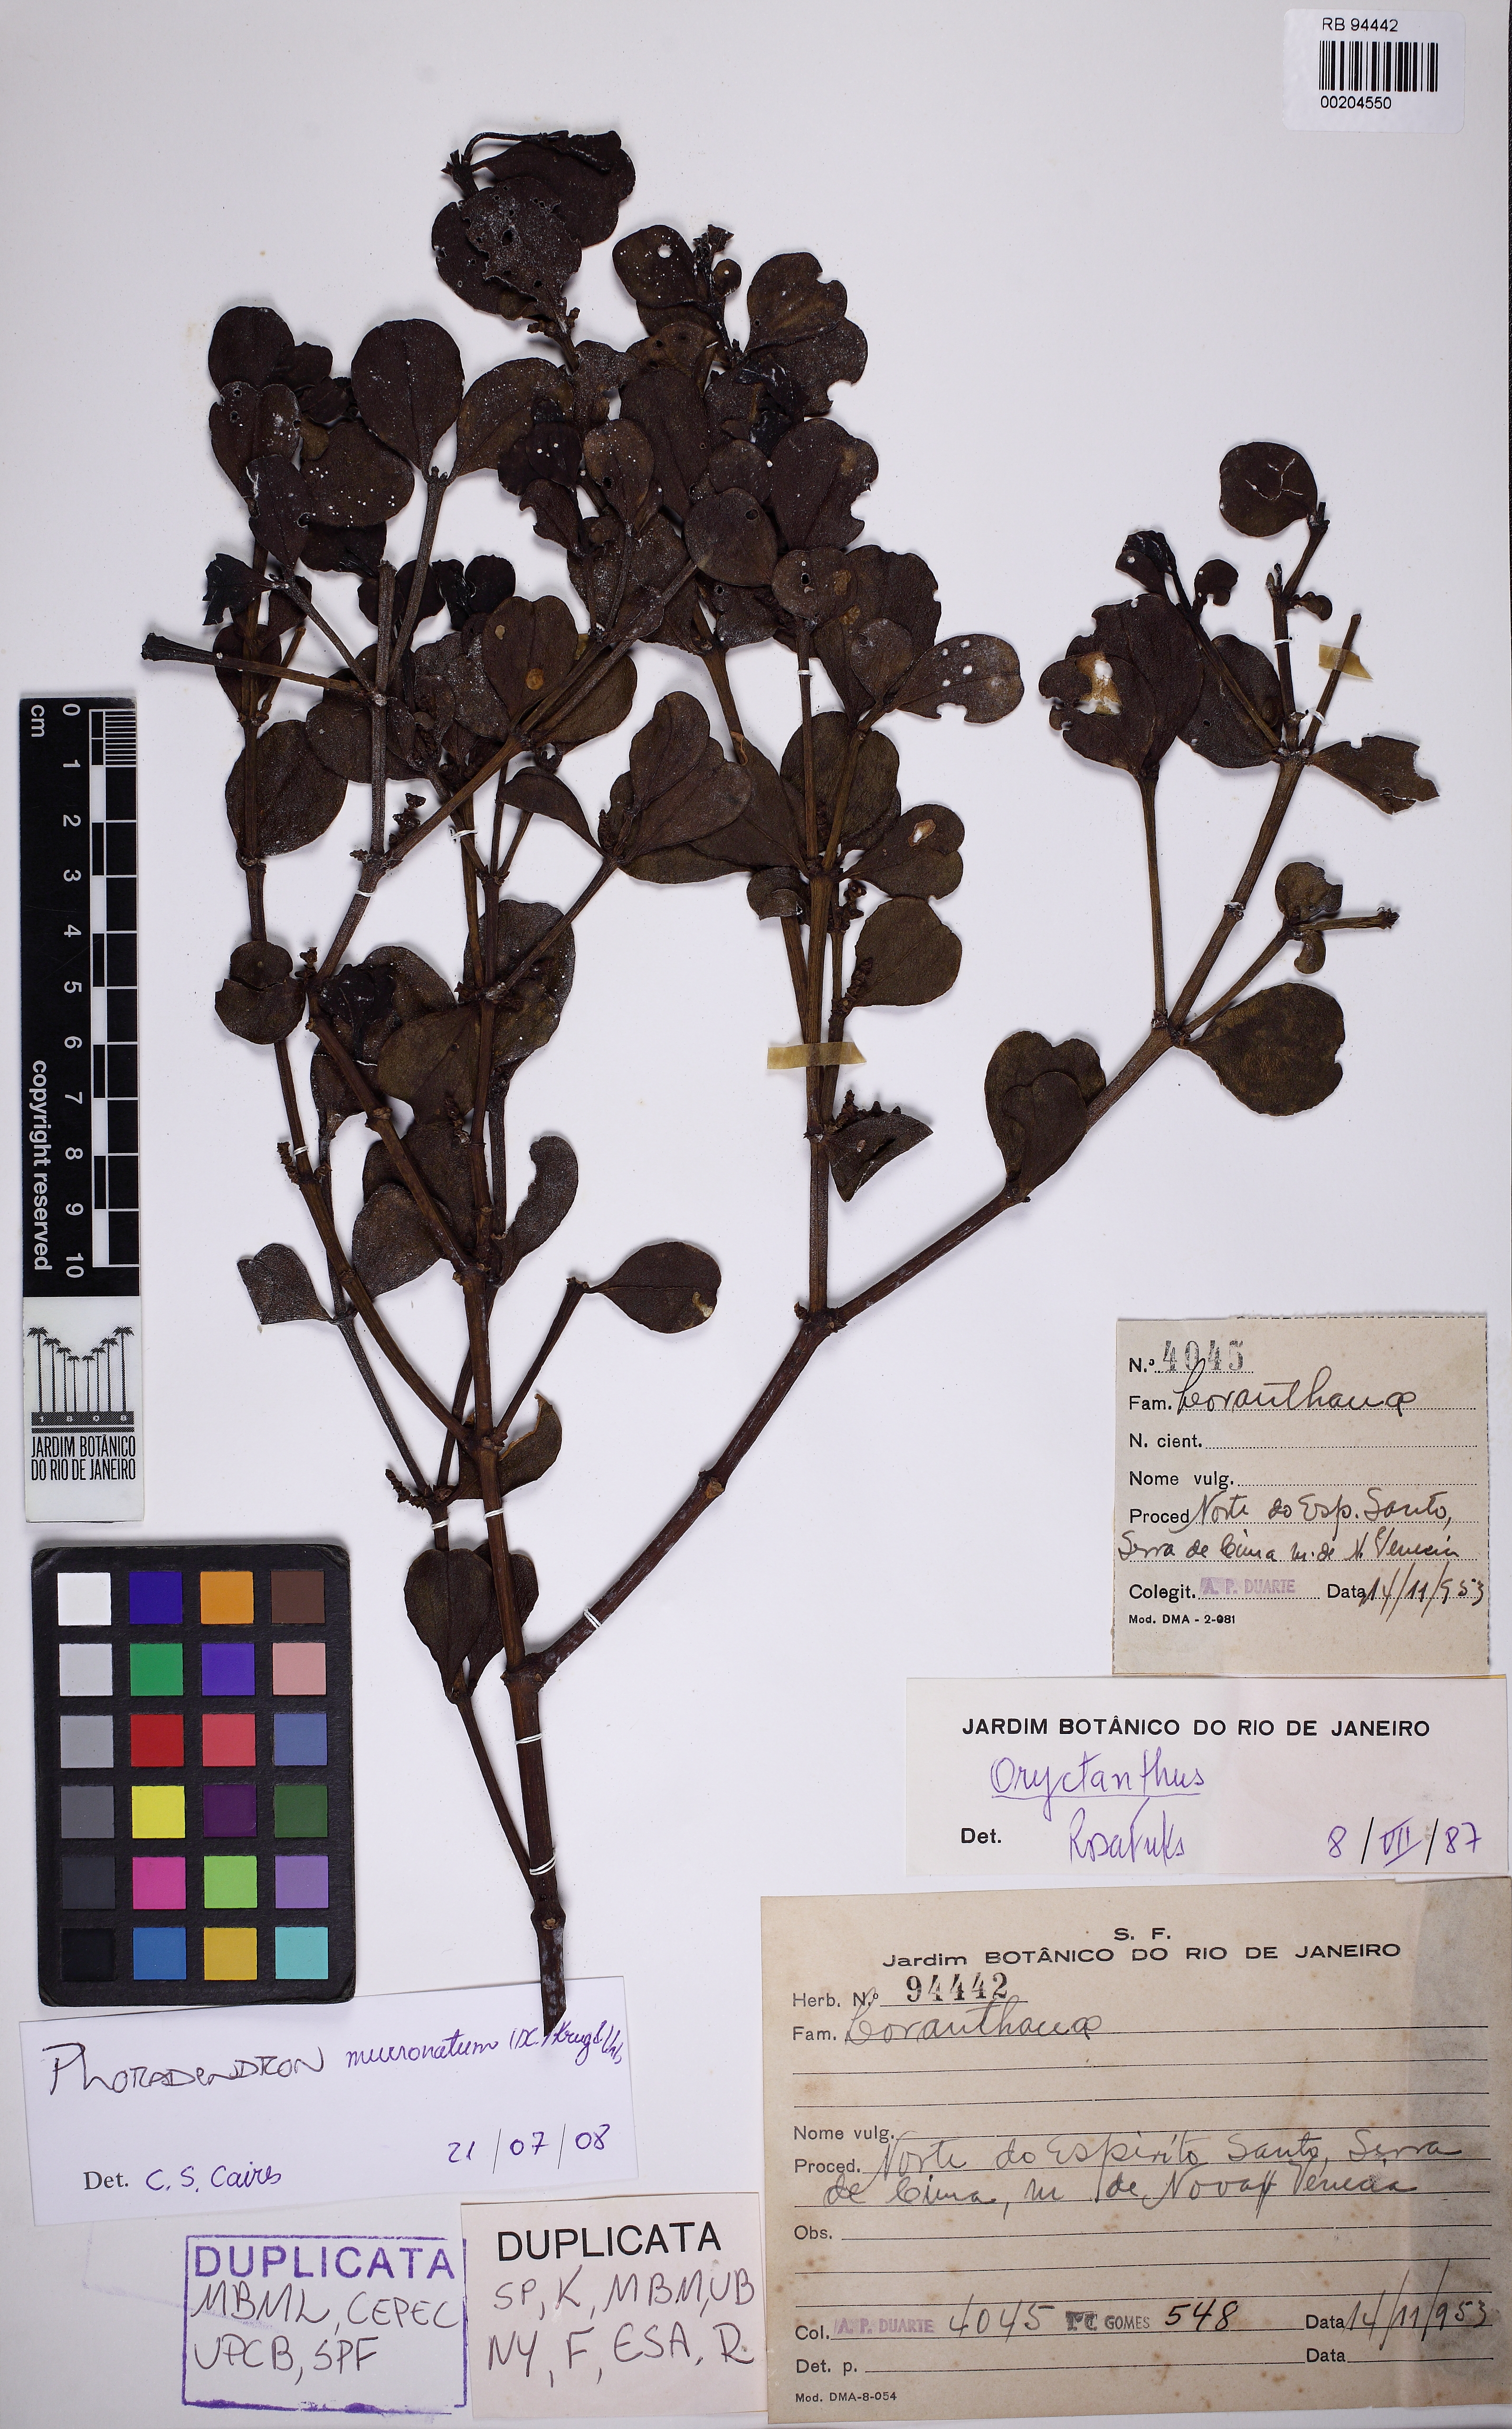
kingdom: Plantae
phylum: Tracheophyta
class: Magnoliopsida
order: Santalales
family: Viscaceae
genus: Phoradendron
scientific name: Phoradendron mucronatum
